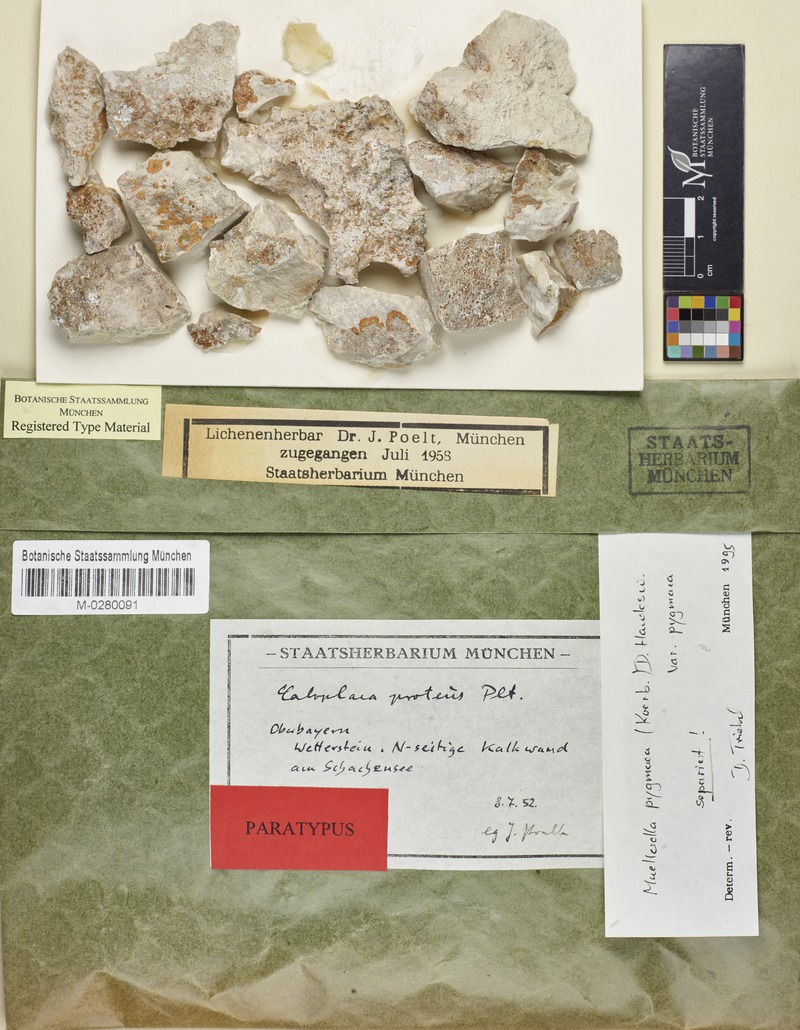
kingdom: Fungi
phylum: Ascomycota
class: Lecanoromycetes
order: Teloschistales
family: Teloschistaceae
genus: Leproplaca
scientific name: Leproplaca proteus
